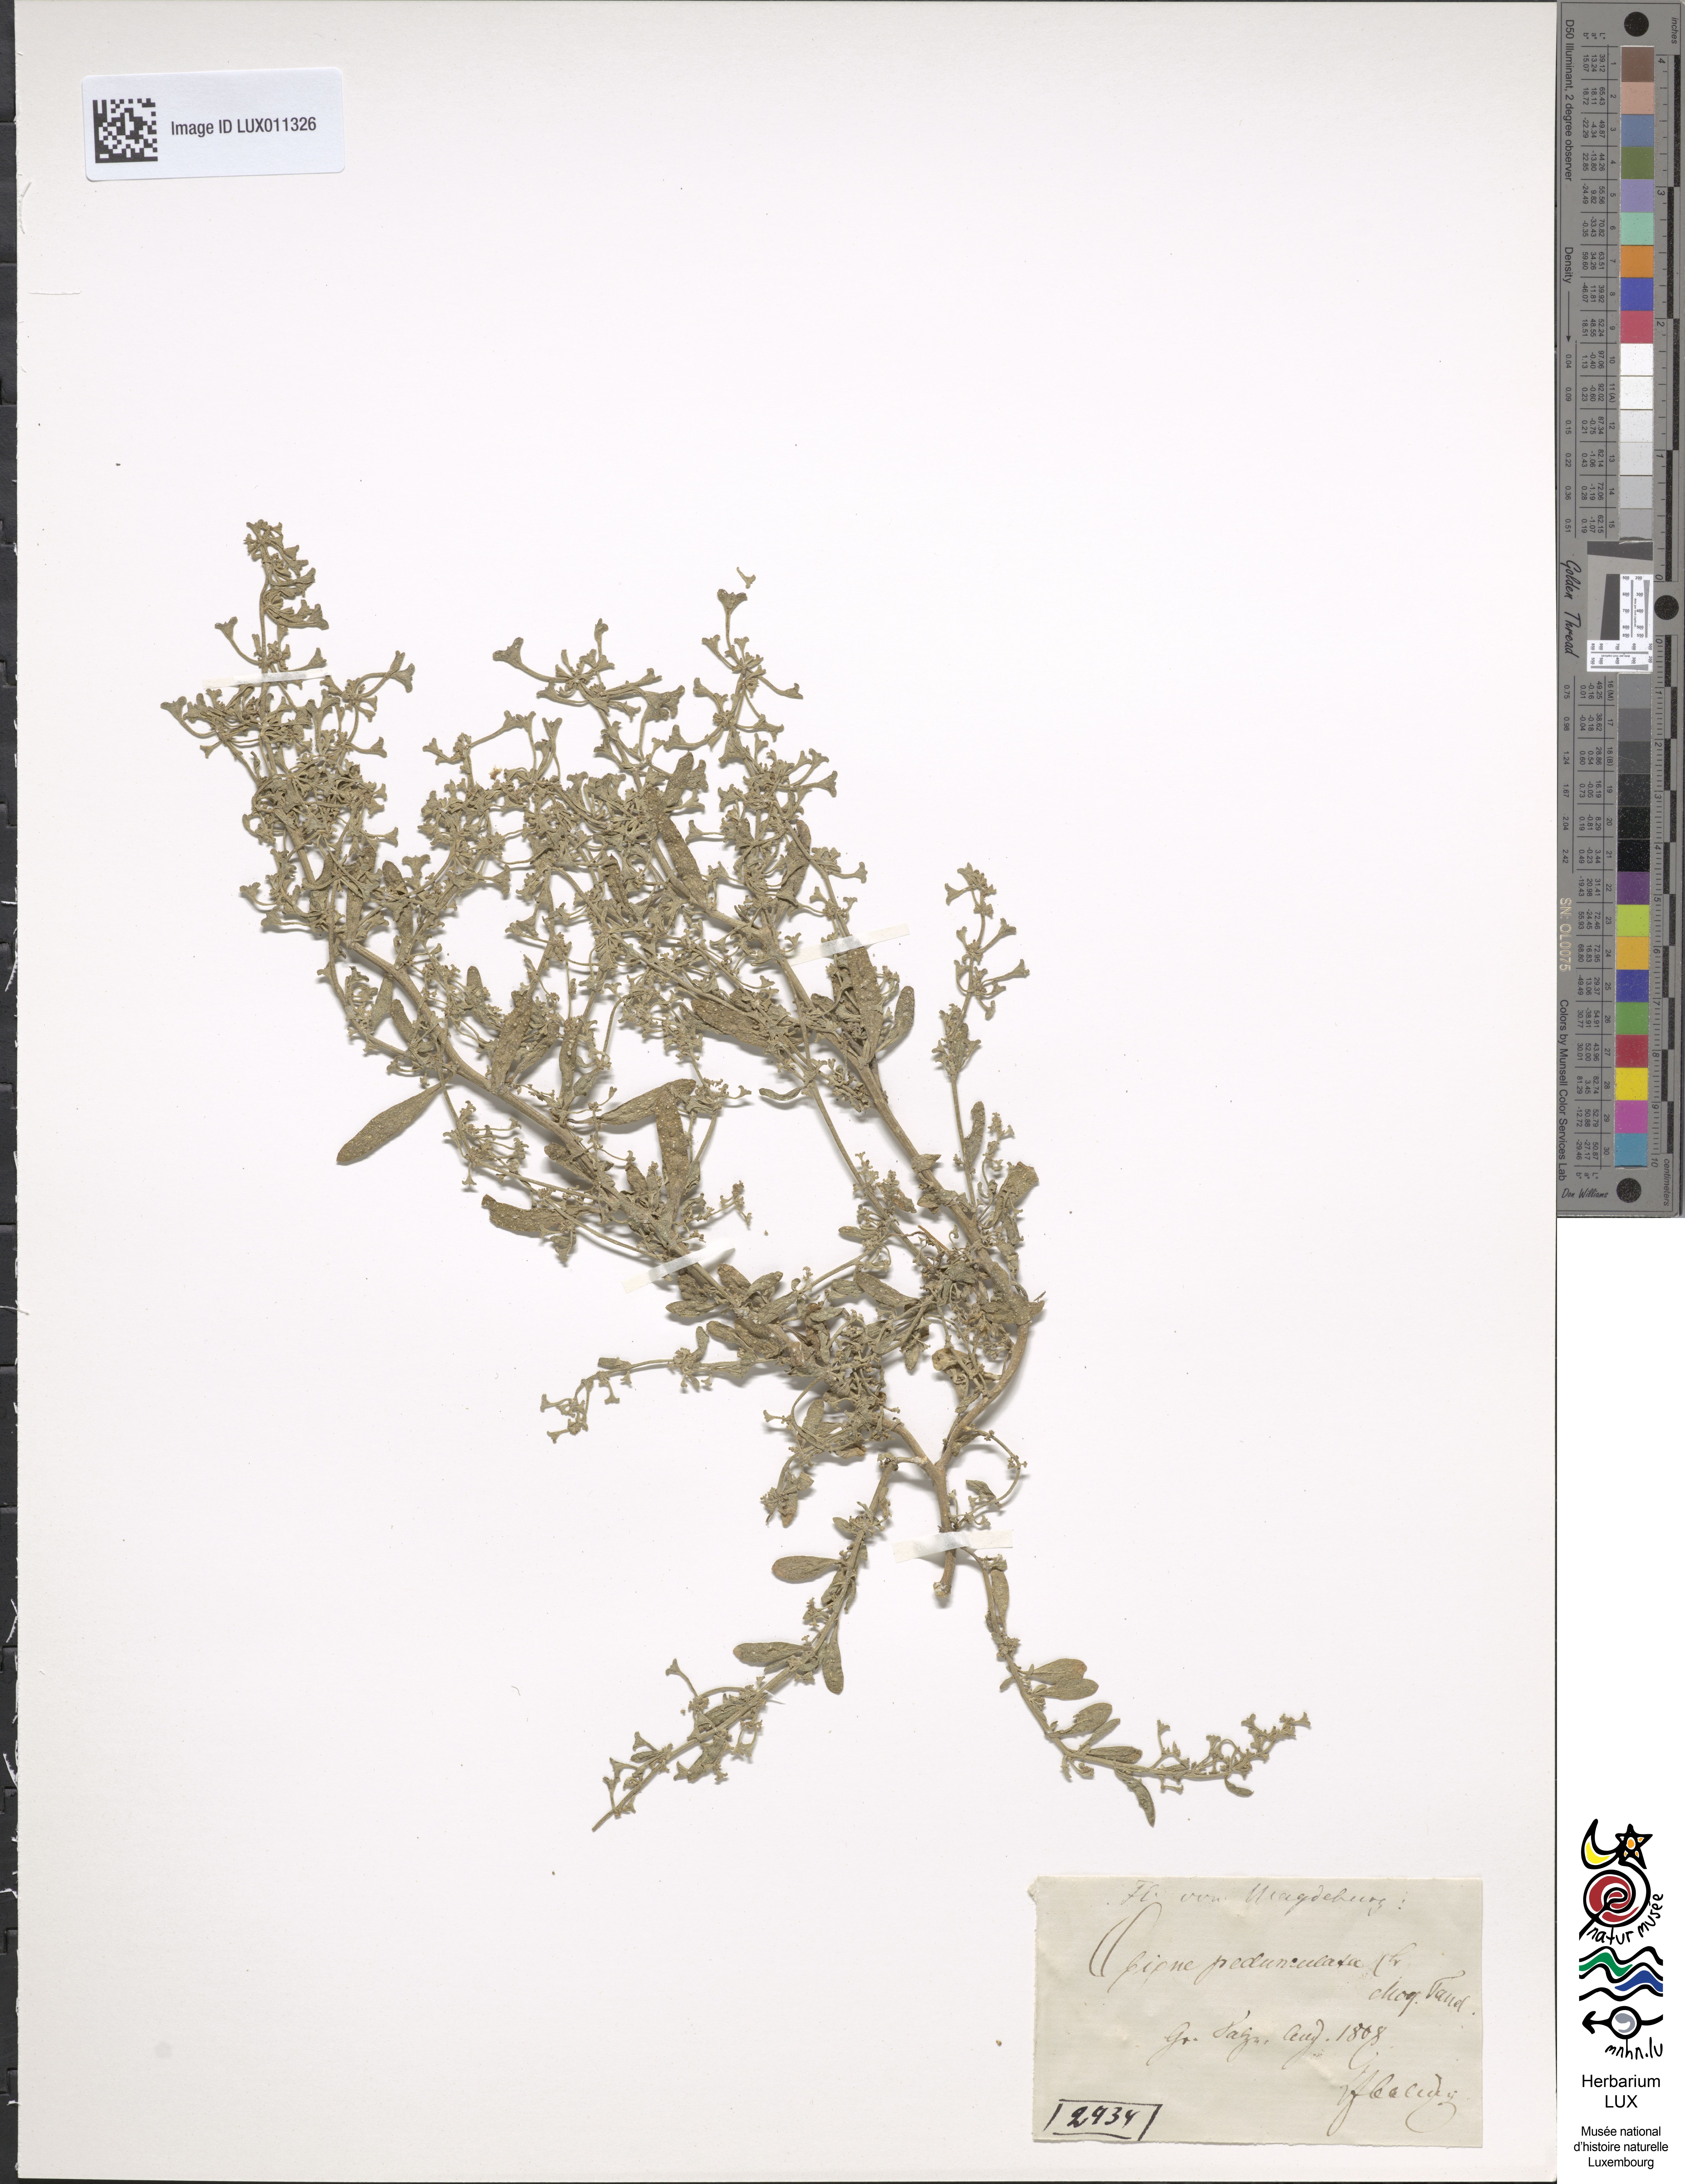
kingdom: Plantae
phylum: Tracheophyta
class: Magnoliopsida
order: Caryophyllales
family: Amaranthaceae
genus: Halimione
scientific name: Halimione pedunculata
